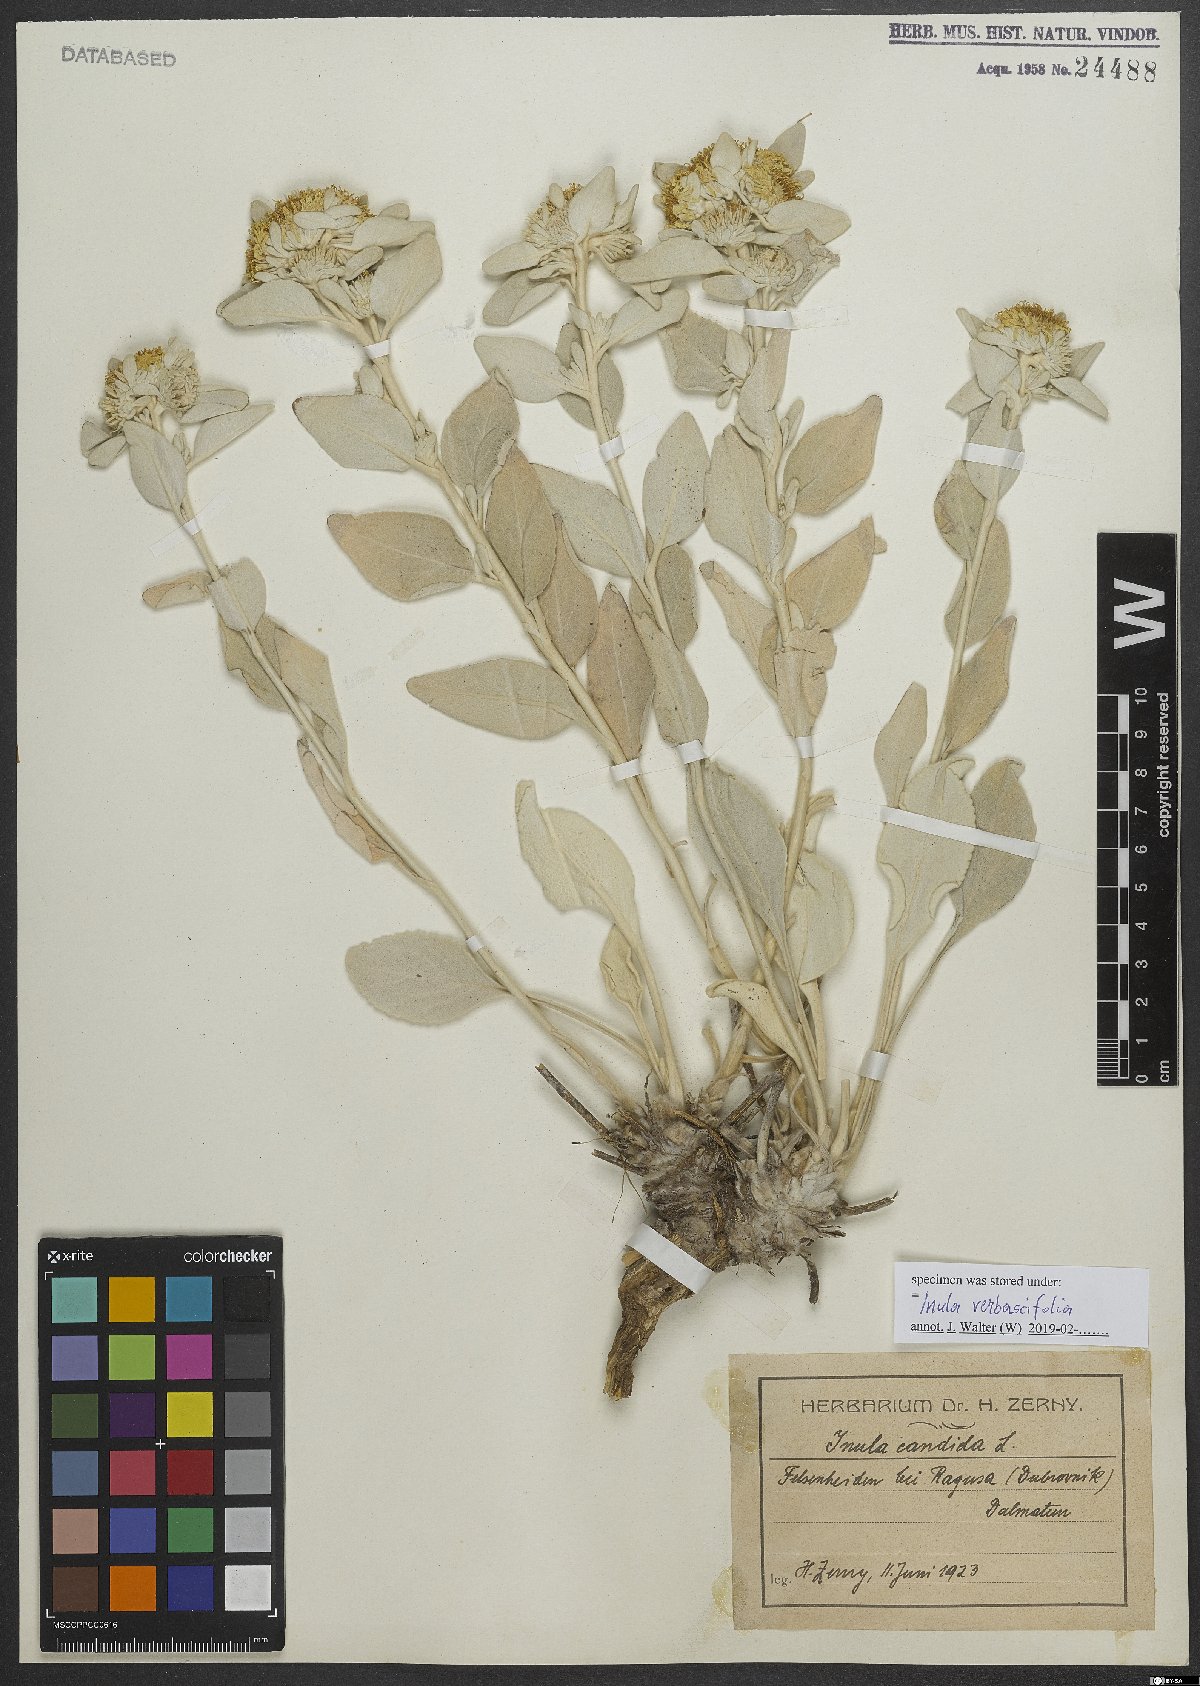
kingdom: Plantae
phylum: Tracheophyta
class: Magnoliopsida
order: Asterales
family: Asteraceae
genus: Pentanema
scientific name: Pentanema verbascifolium
